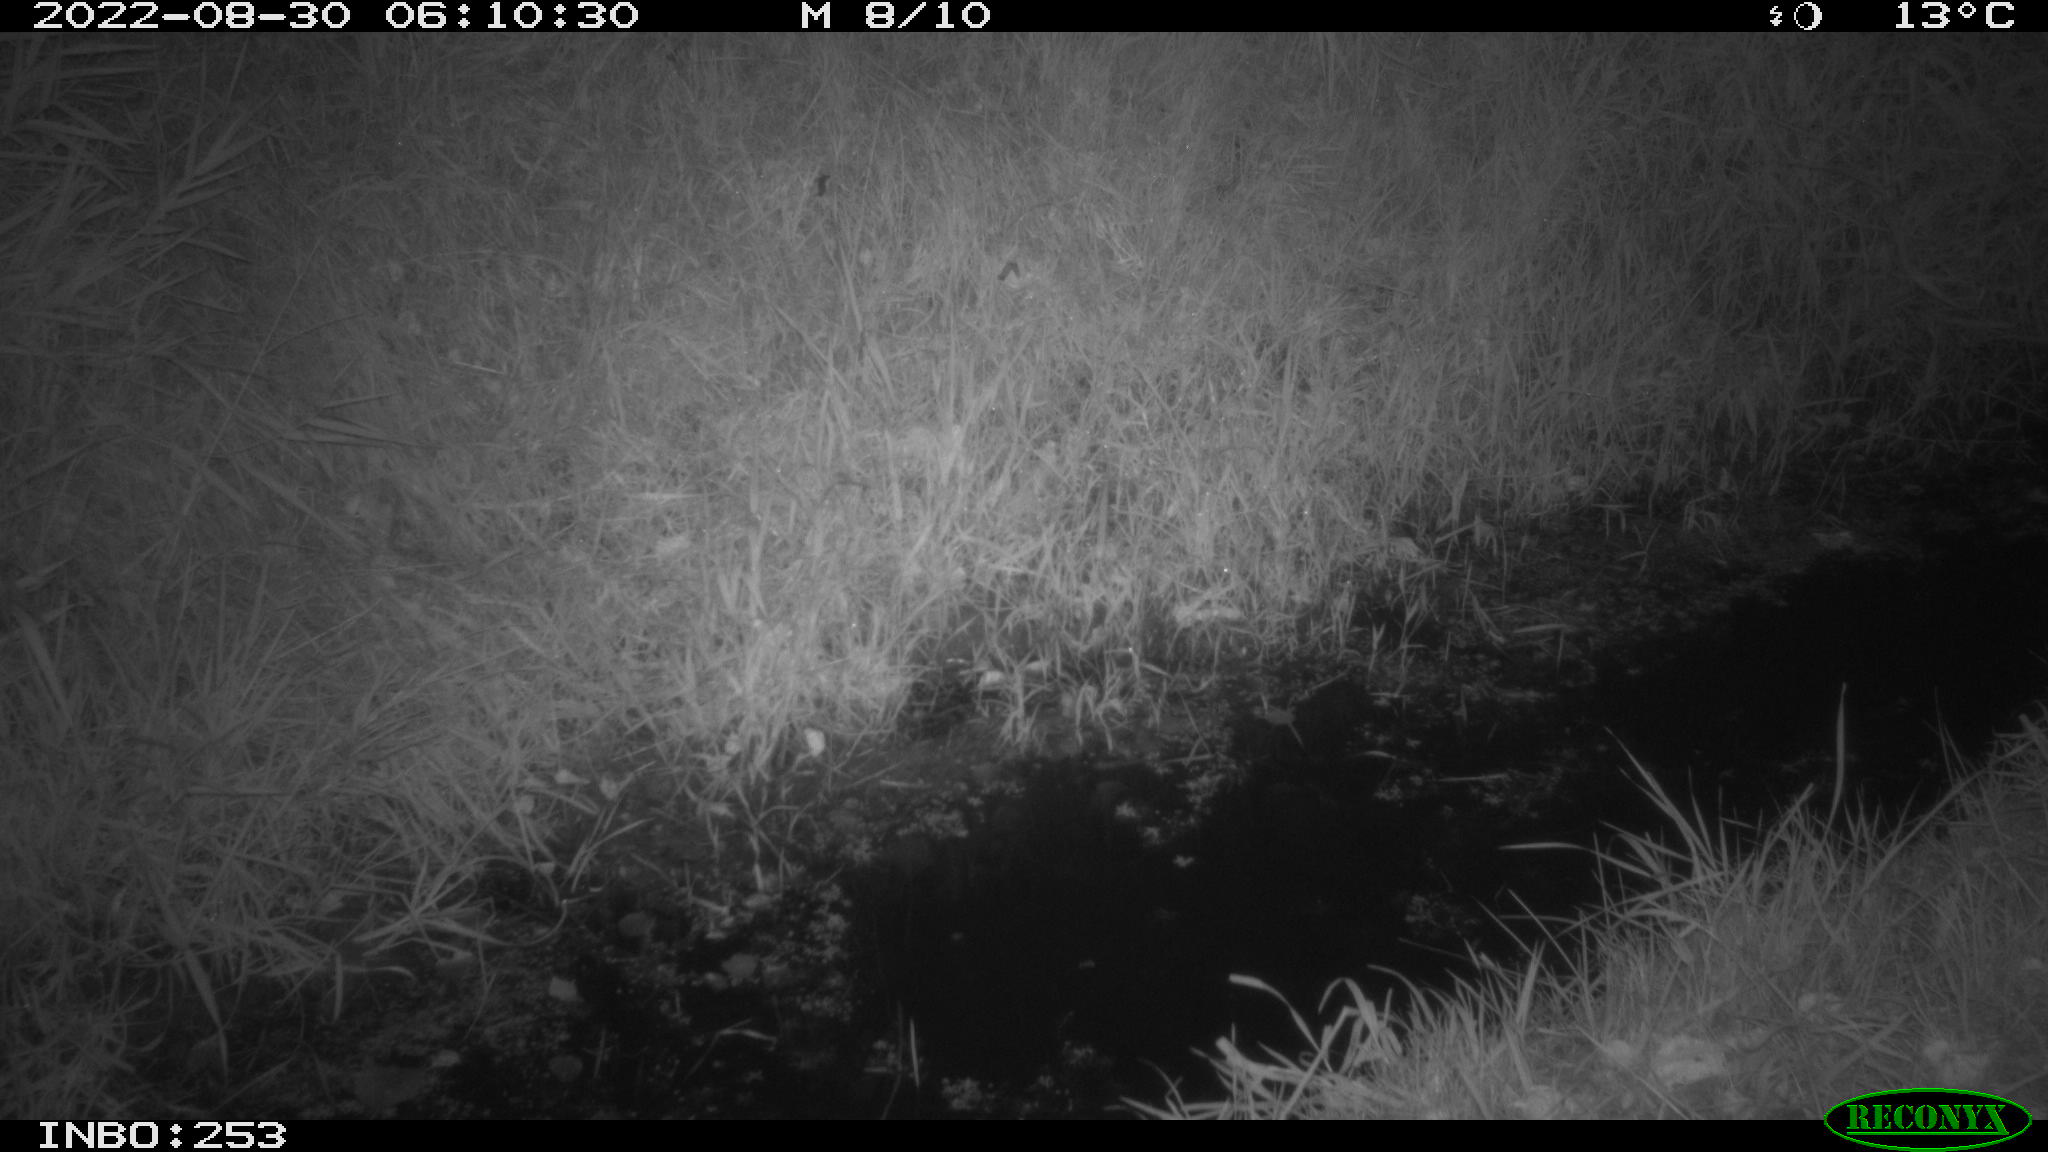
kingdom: Animalia
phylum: Chordata
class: Mammalia
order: Carnivora
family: Felidae
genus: Felis
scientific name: Felis catus
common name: Domestic cat
